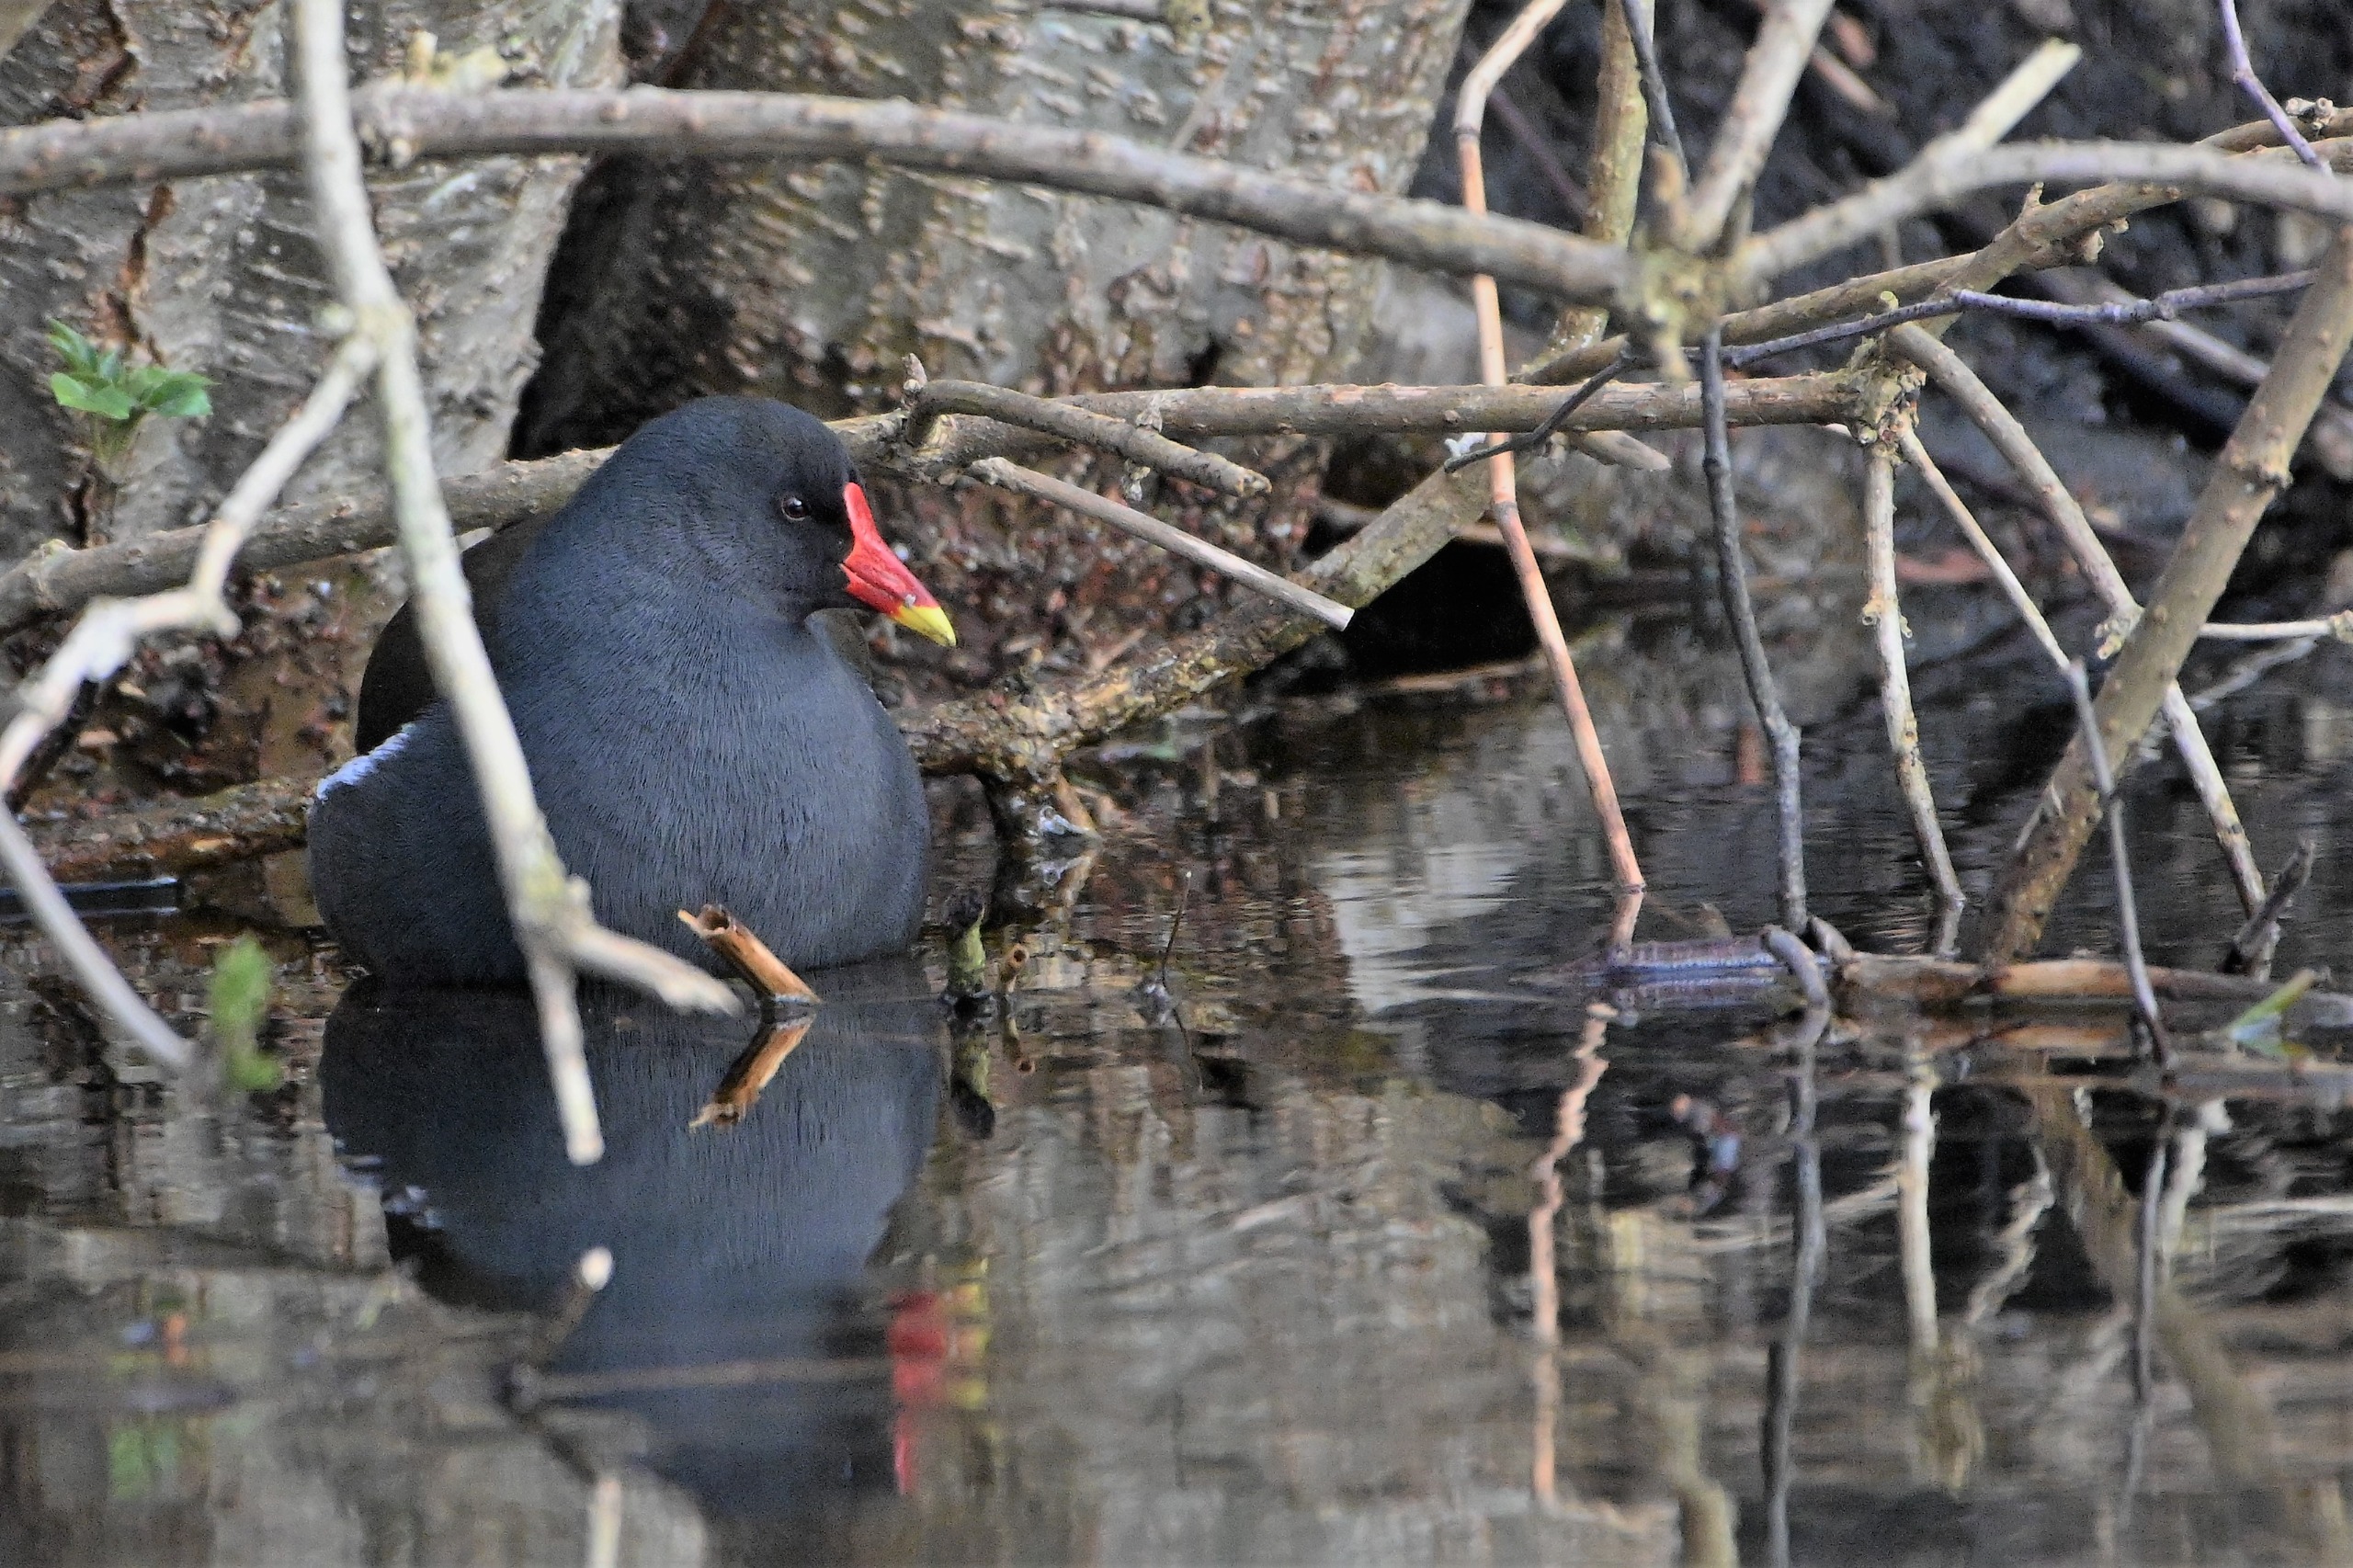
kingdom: Animalia
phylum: Chordata
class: Aves
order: Gruiformes
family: Rallidae
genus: Gallinula
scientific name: Gallinula chloropus
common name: Grønbenet rørhøne
